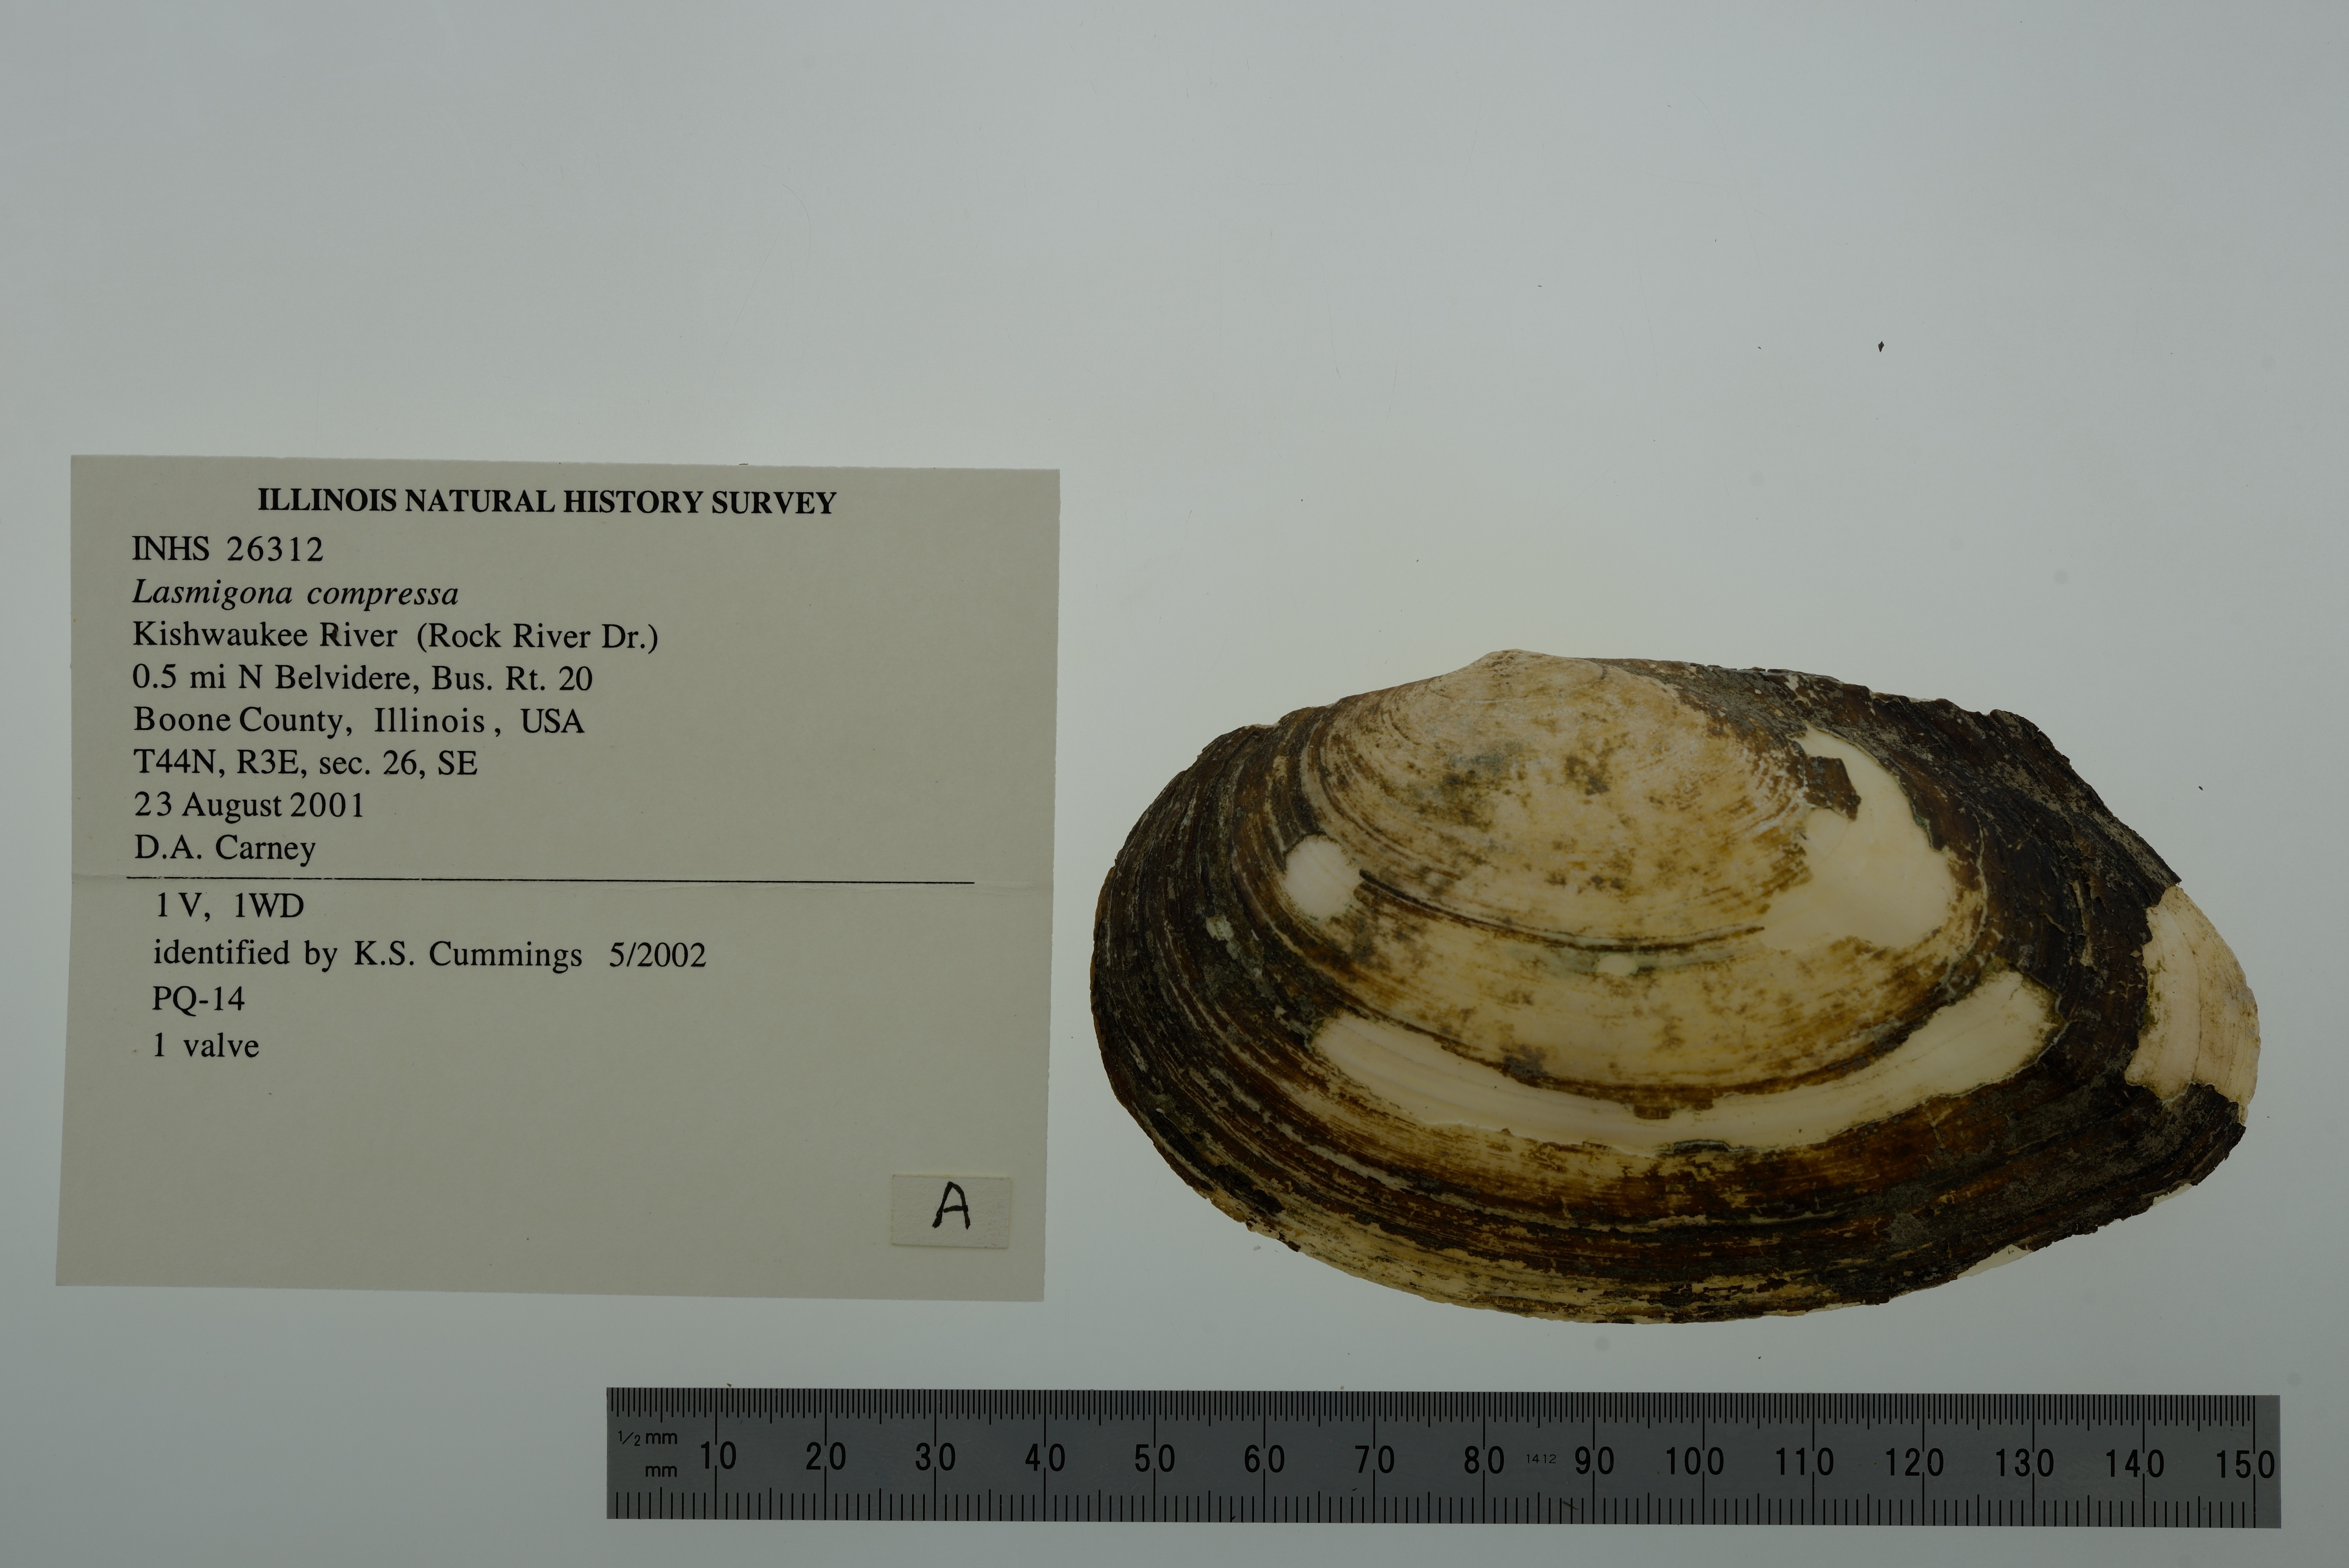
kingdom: Animalia
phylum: Mollusca
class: Bivalvia
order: Unionida
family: Unionidae
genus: Lasmigona
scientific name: Lasmigona compressa
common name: Creek heelsplitter
